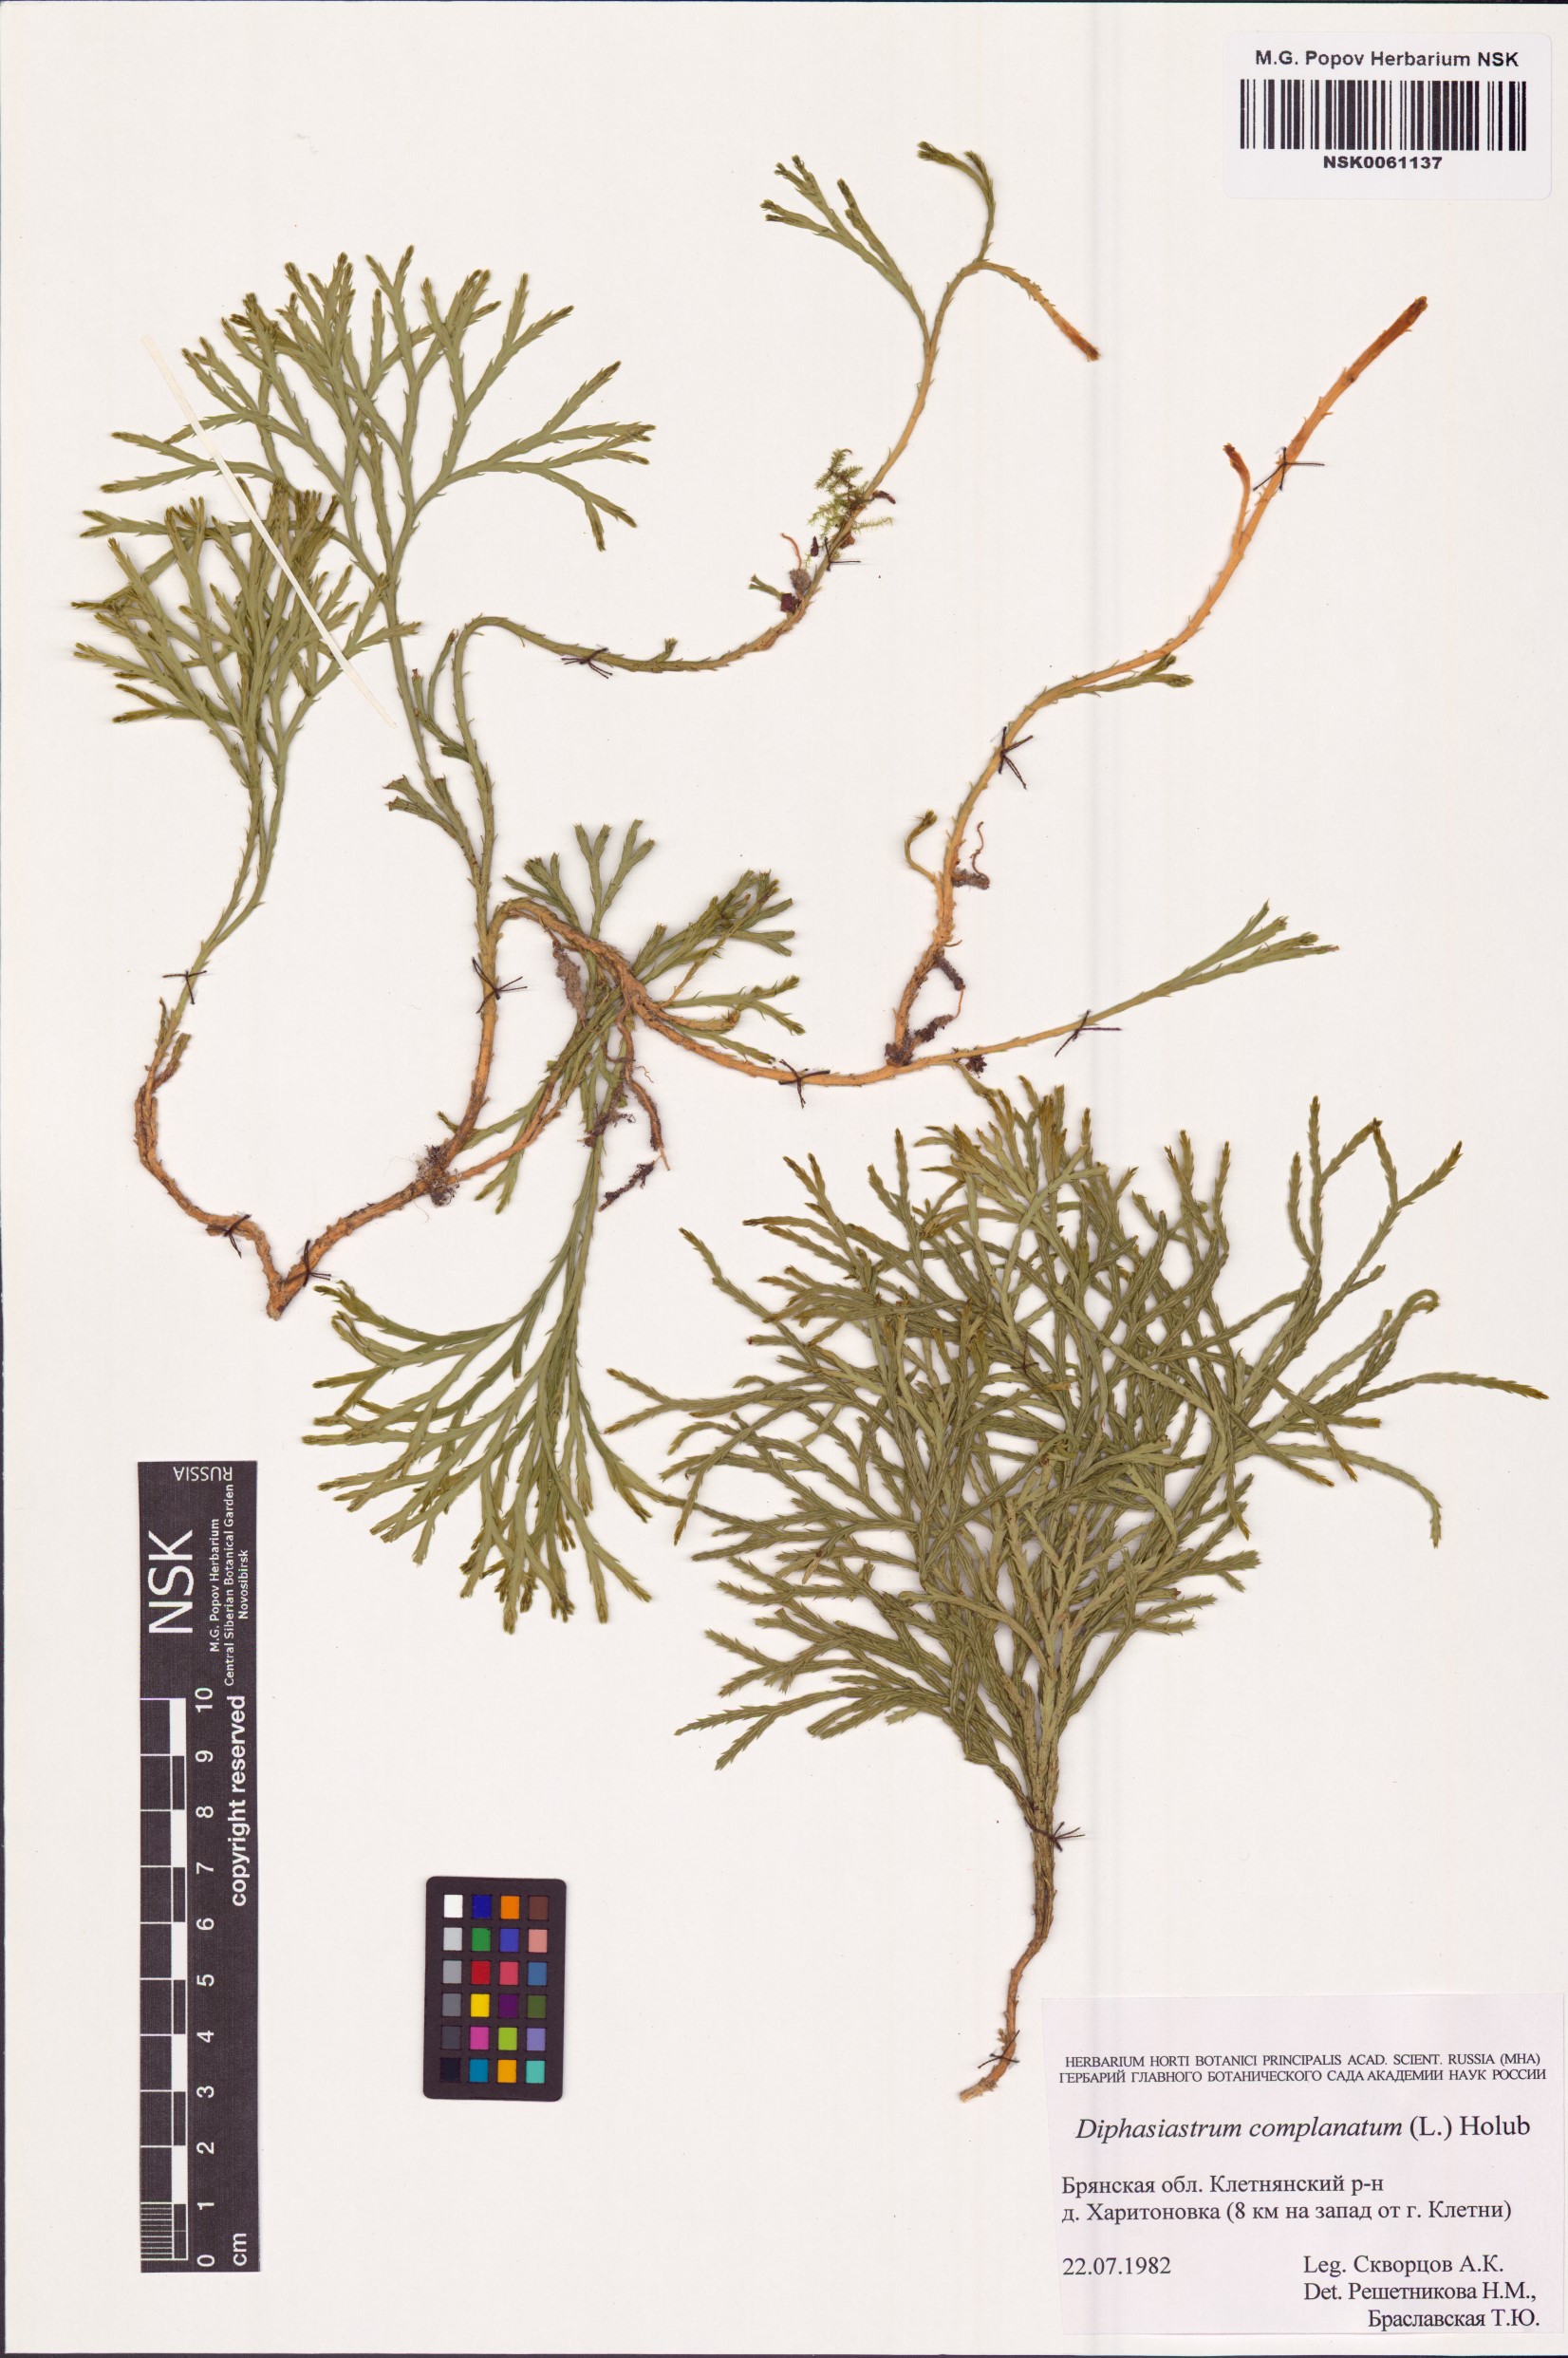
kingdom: Plantae
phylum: Tracheophyta
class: Lycopodiopsida
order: Lycopodiales
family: Lycopodiaceae
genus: Diphasiastrum
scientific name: Diphasiastrum complanatum
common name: Northern running-pine
